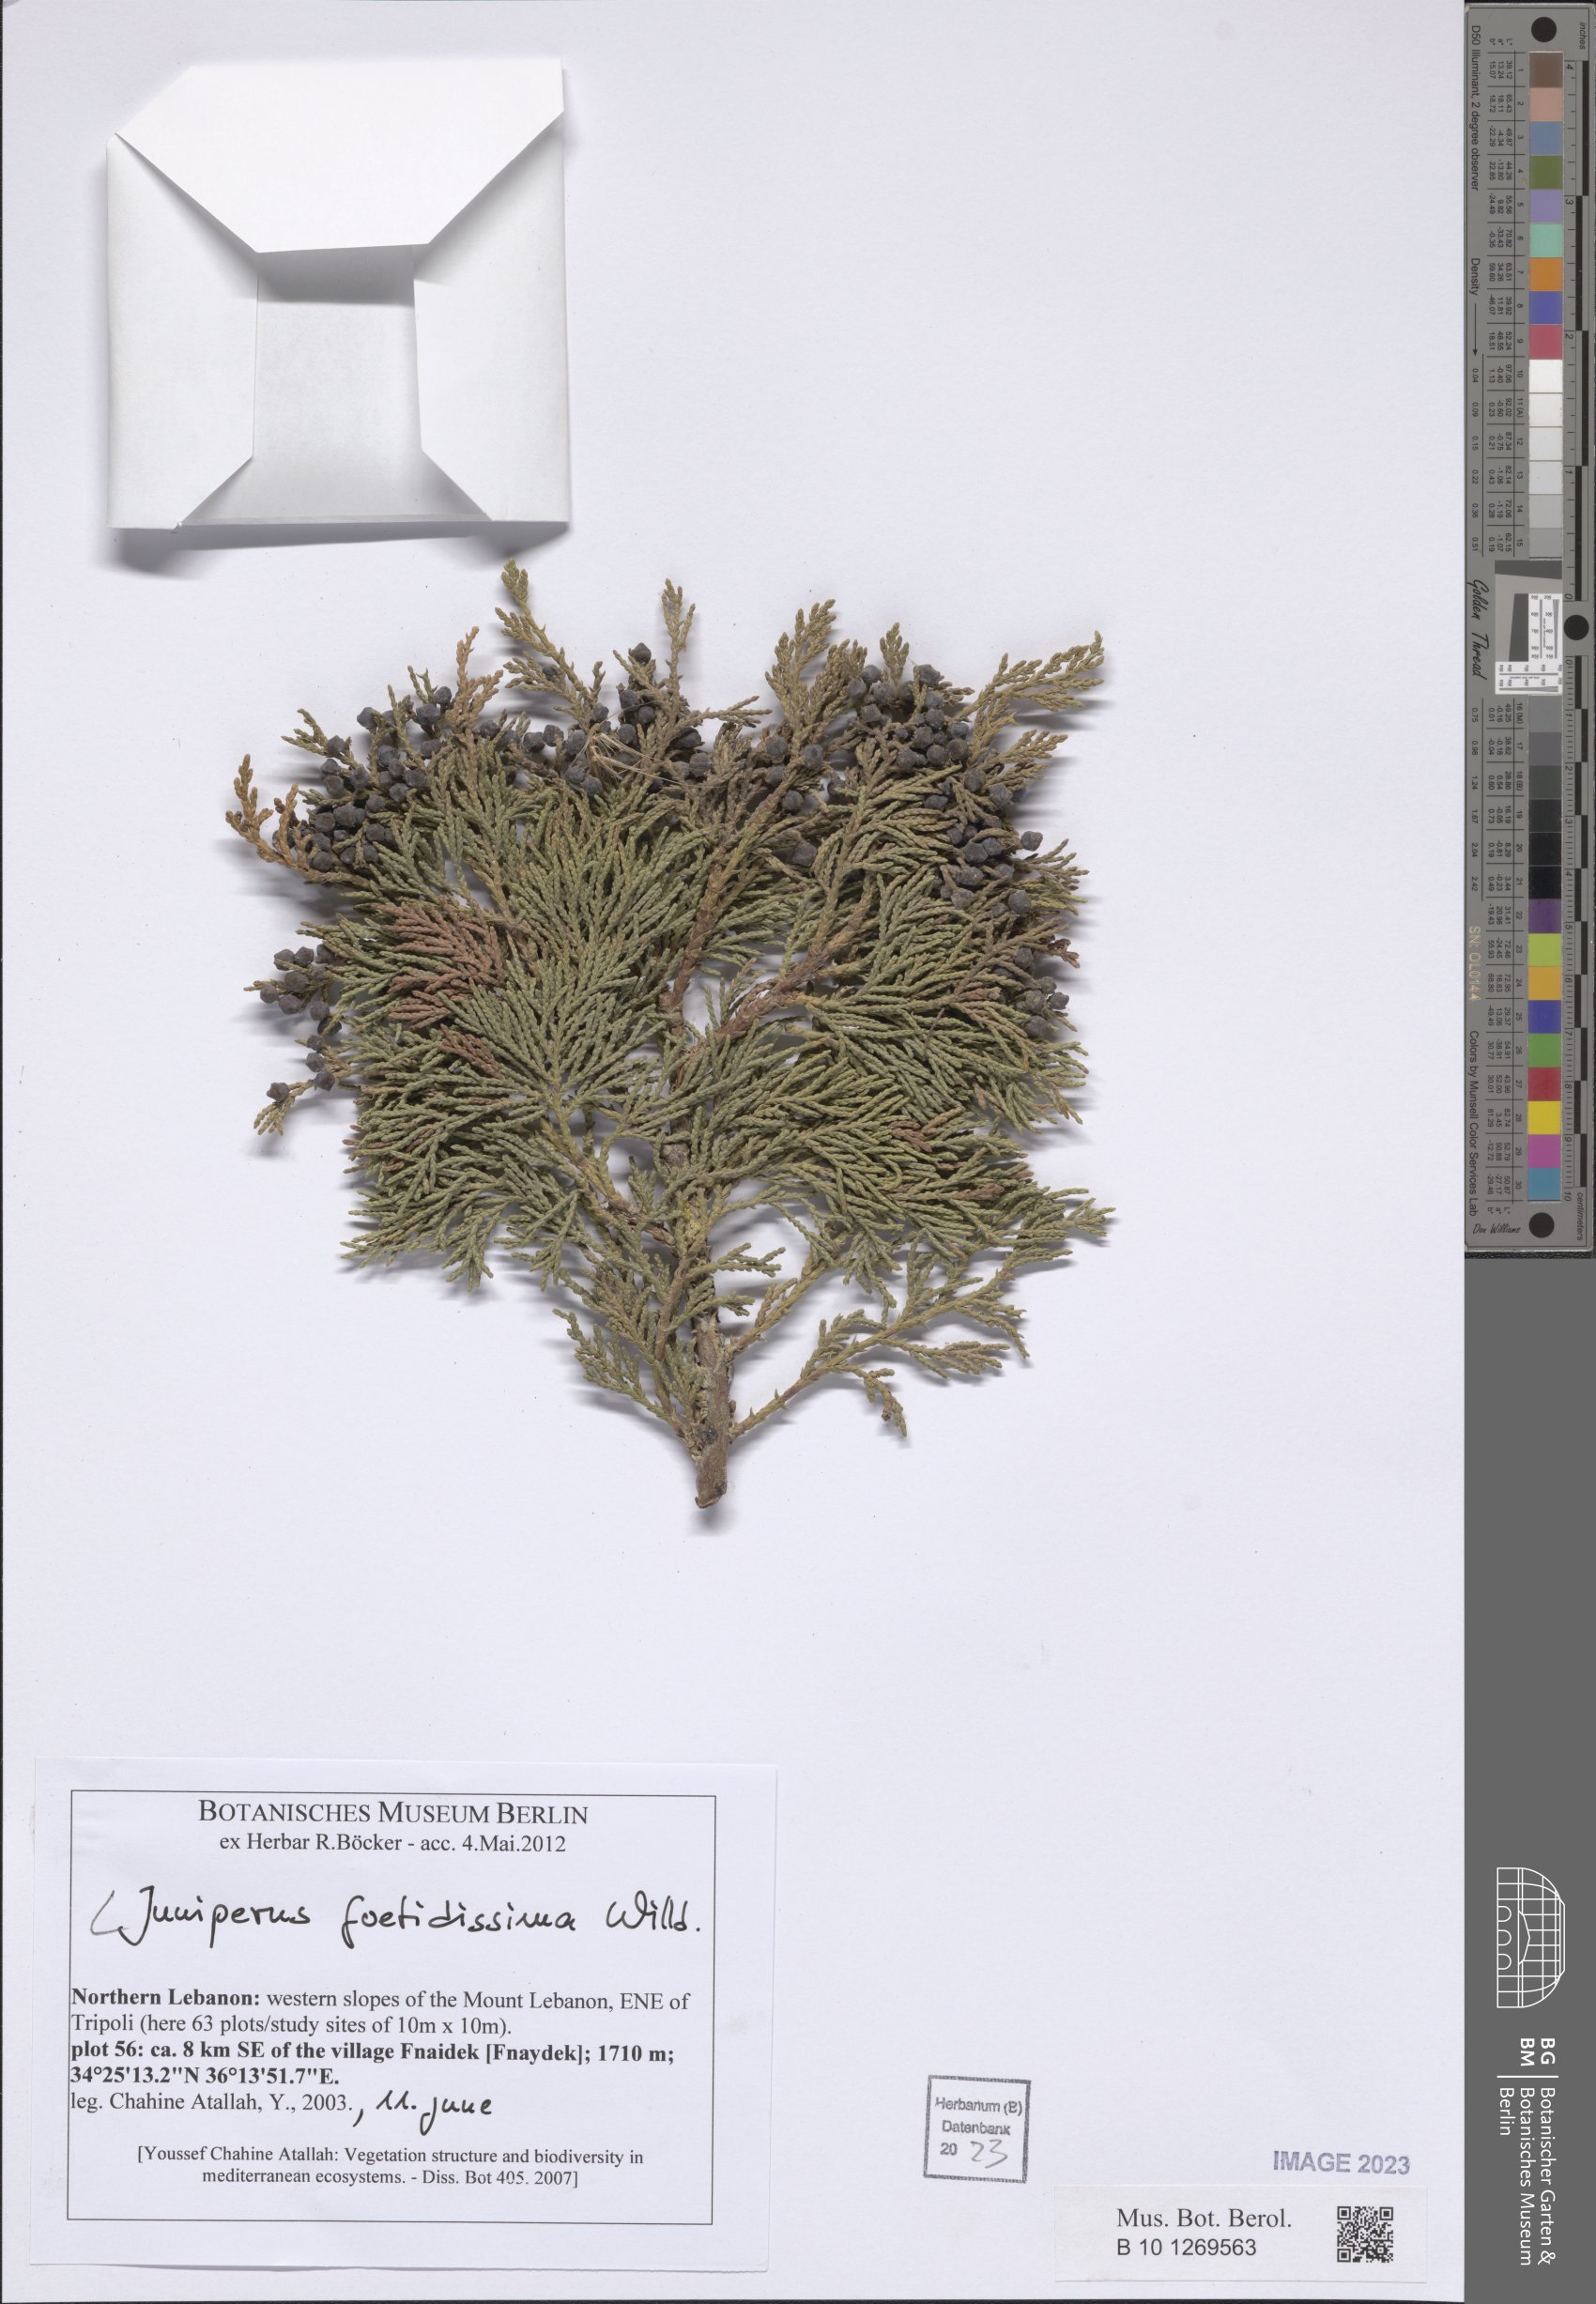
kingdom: Plantae
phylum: Tracheophyta
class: Pinopsida
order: Pinales
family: Cupressaceae
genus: Juniperus
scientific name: Juniperus foetidissima
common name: Stinking juniper
